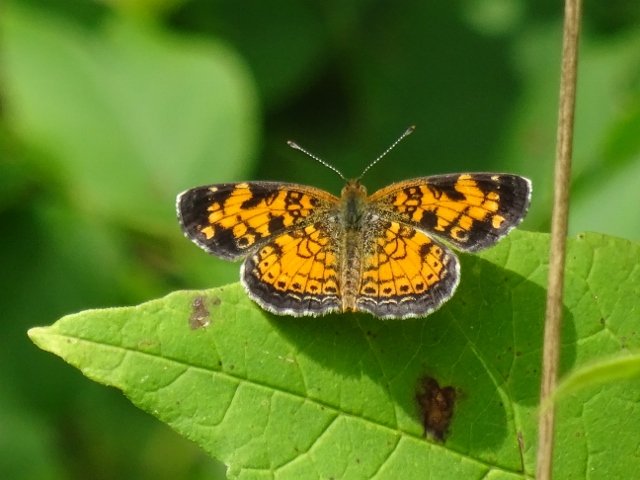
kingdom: Animalia
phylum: Arthropoda
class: Insecta
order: Lepidoptera
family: Nymphalidae
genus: Phyciodes
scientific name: Phyciodes tharos
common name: Pearl Crescent
